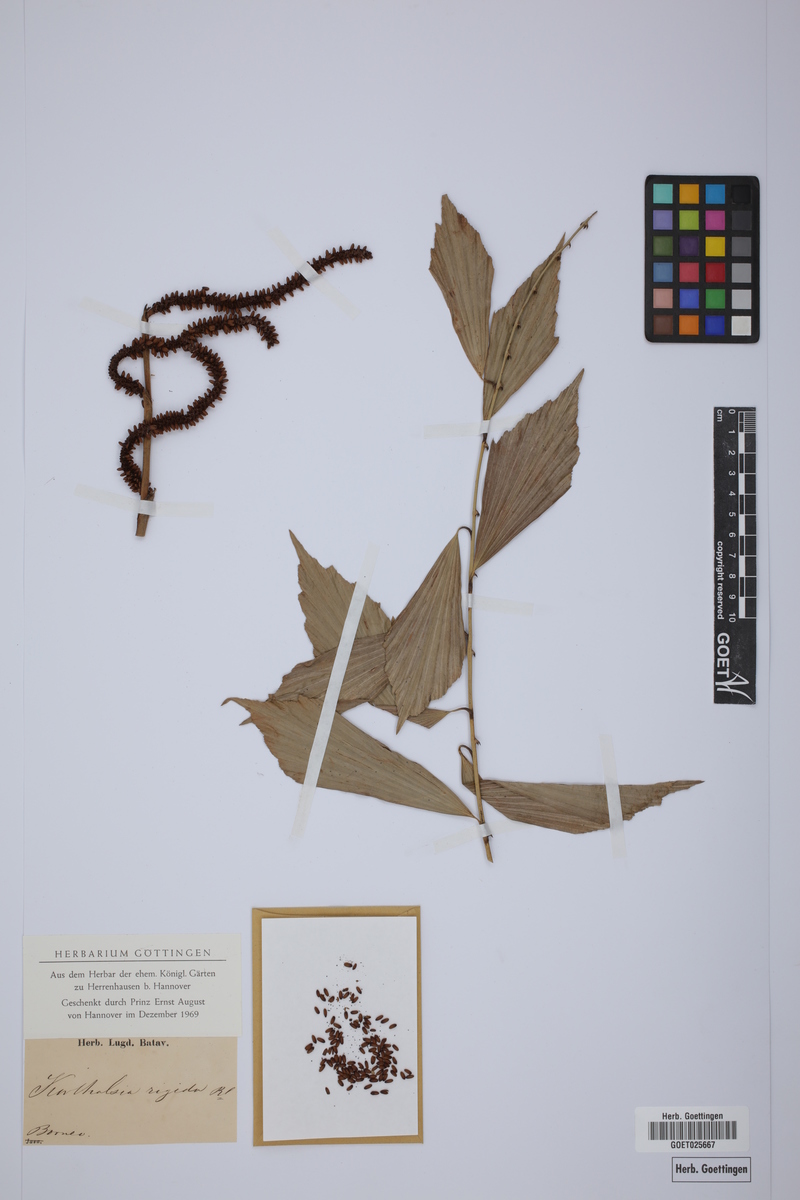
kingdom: Plantae
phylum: Tracheophyta
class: Liliopsida
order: Arecales
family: Arecaceae
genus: Korthalsia
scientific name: Korthalsia rigida
